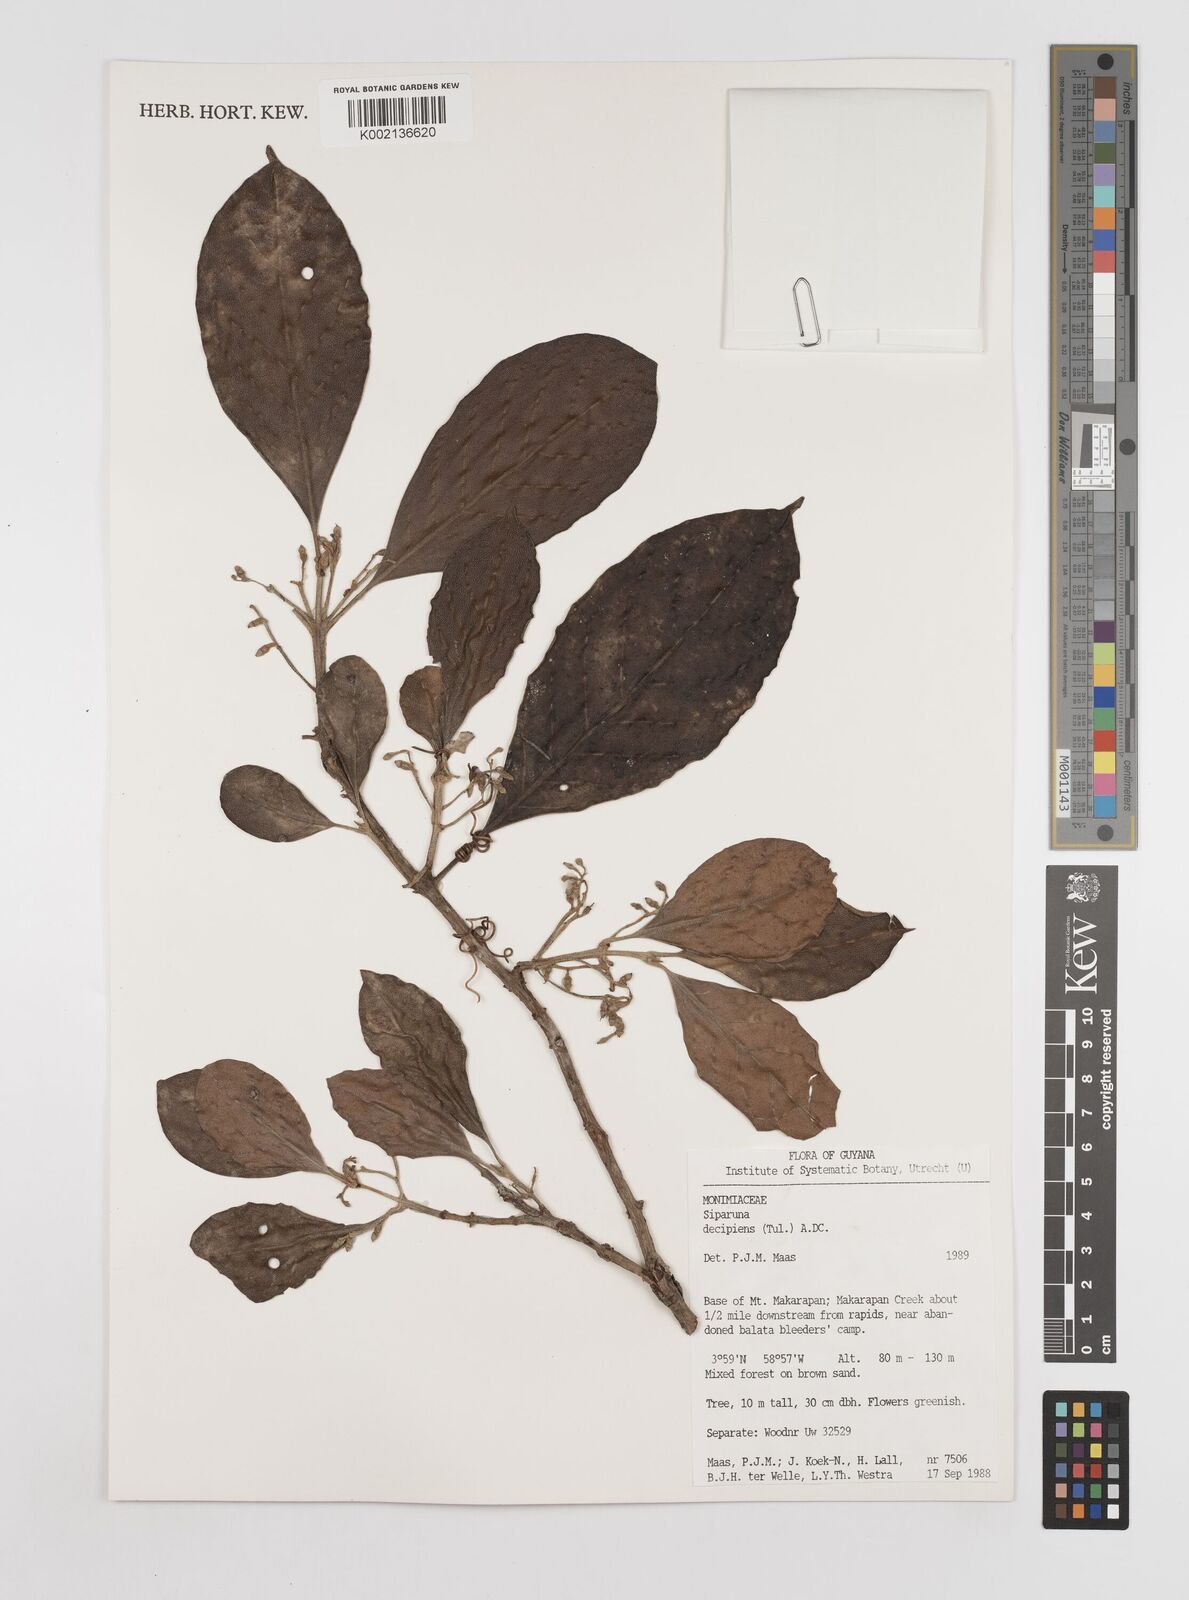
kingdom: Plantae
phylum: Tracheophyta
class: Magnoliopsida
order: Laurales
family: Siparunaceae
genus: Siparuna
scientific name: Siparuna decipiens
